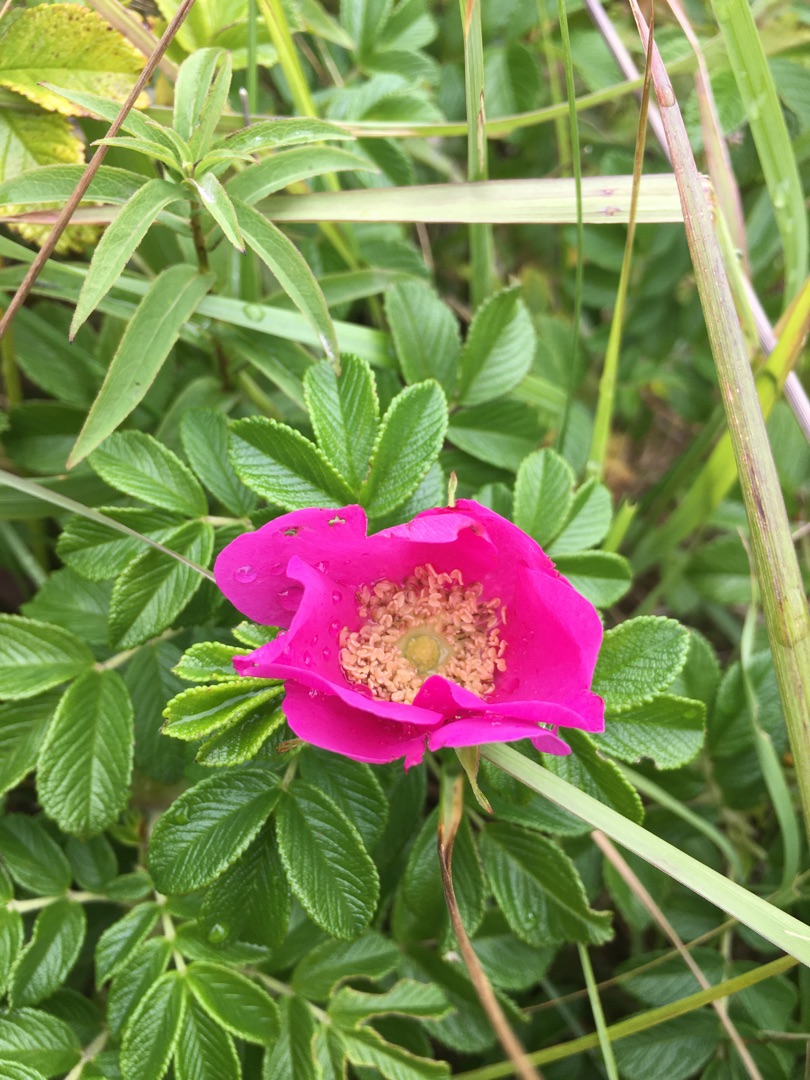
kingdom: Plantae
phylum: Tracheophyta
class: Magnoliopsida
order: Rosales
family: Rosaceae
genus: Rosa
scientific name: Rosa rugosa
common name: Rynket rose
